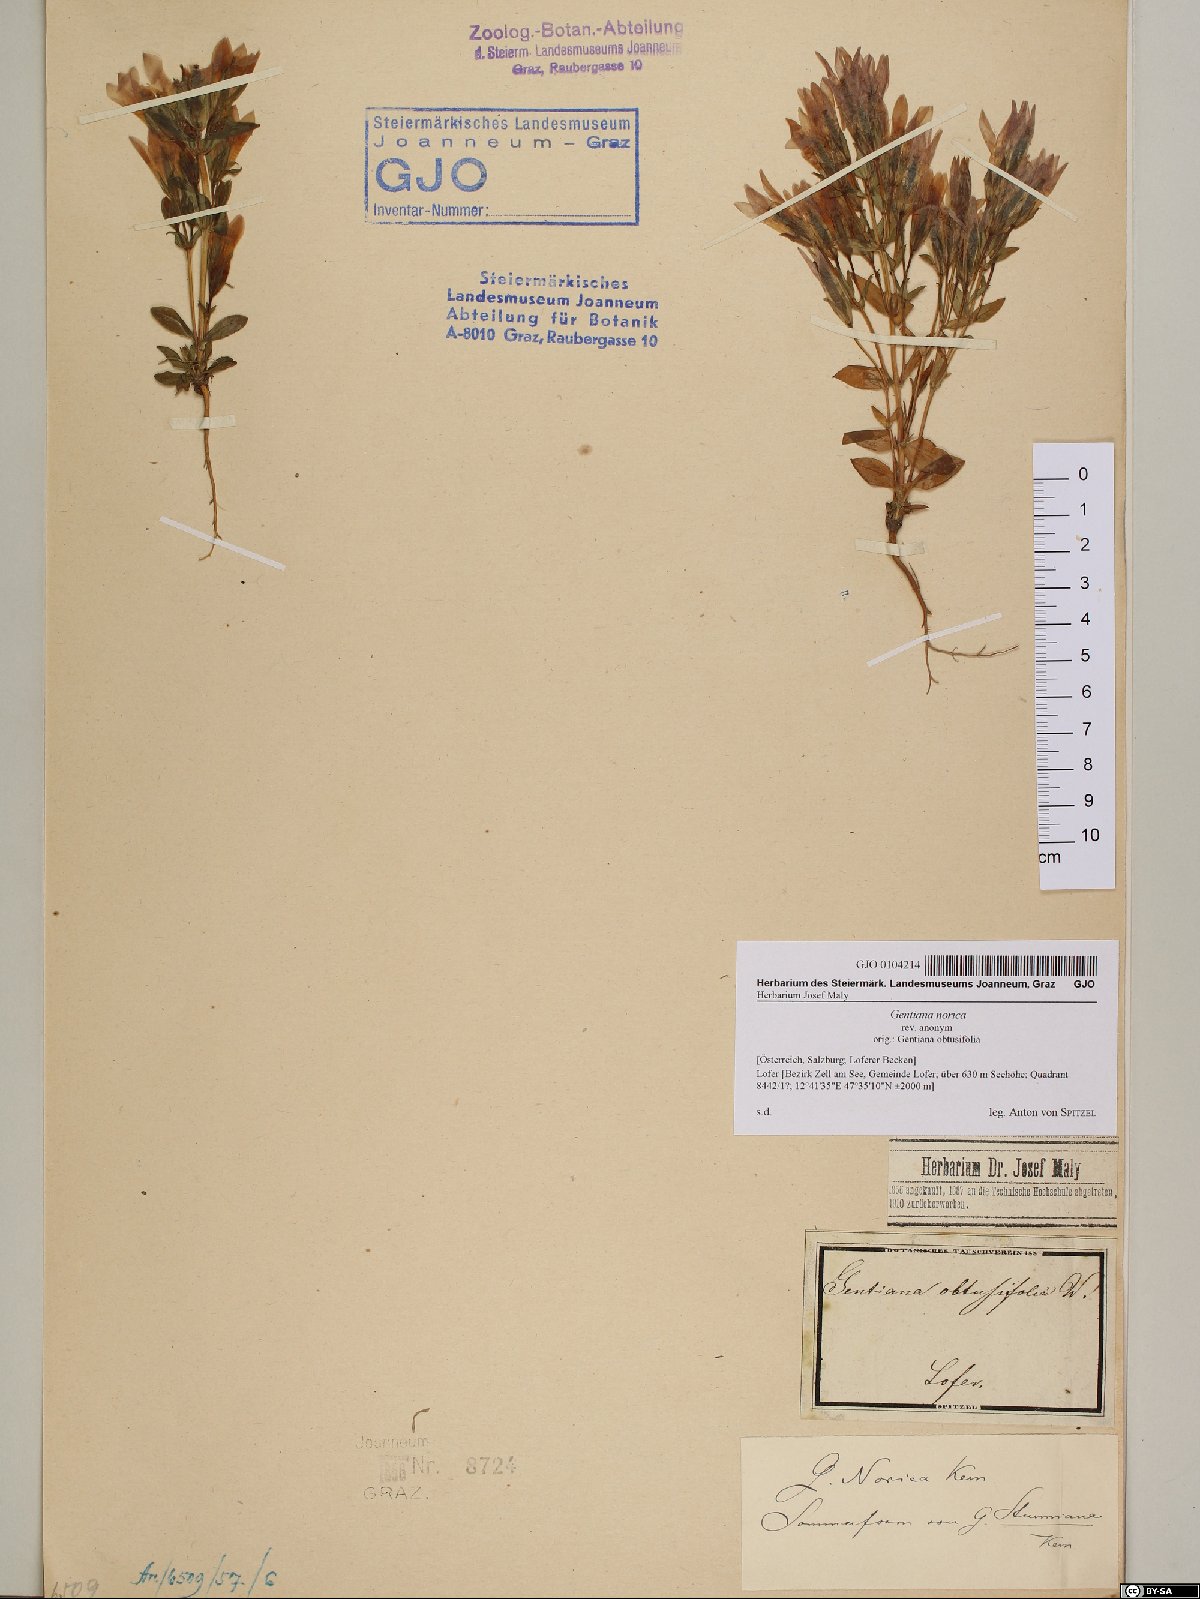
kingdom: Plantae
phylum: Tracheophyta
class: Magnoliopsida
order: Gentianales
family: Gentianaceae
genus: Gentianella
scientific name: Gentianella obtusifolia
